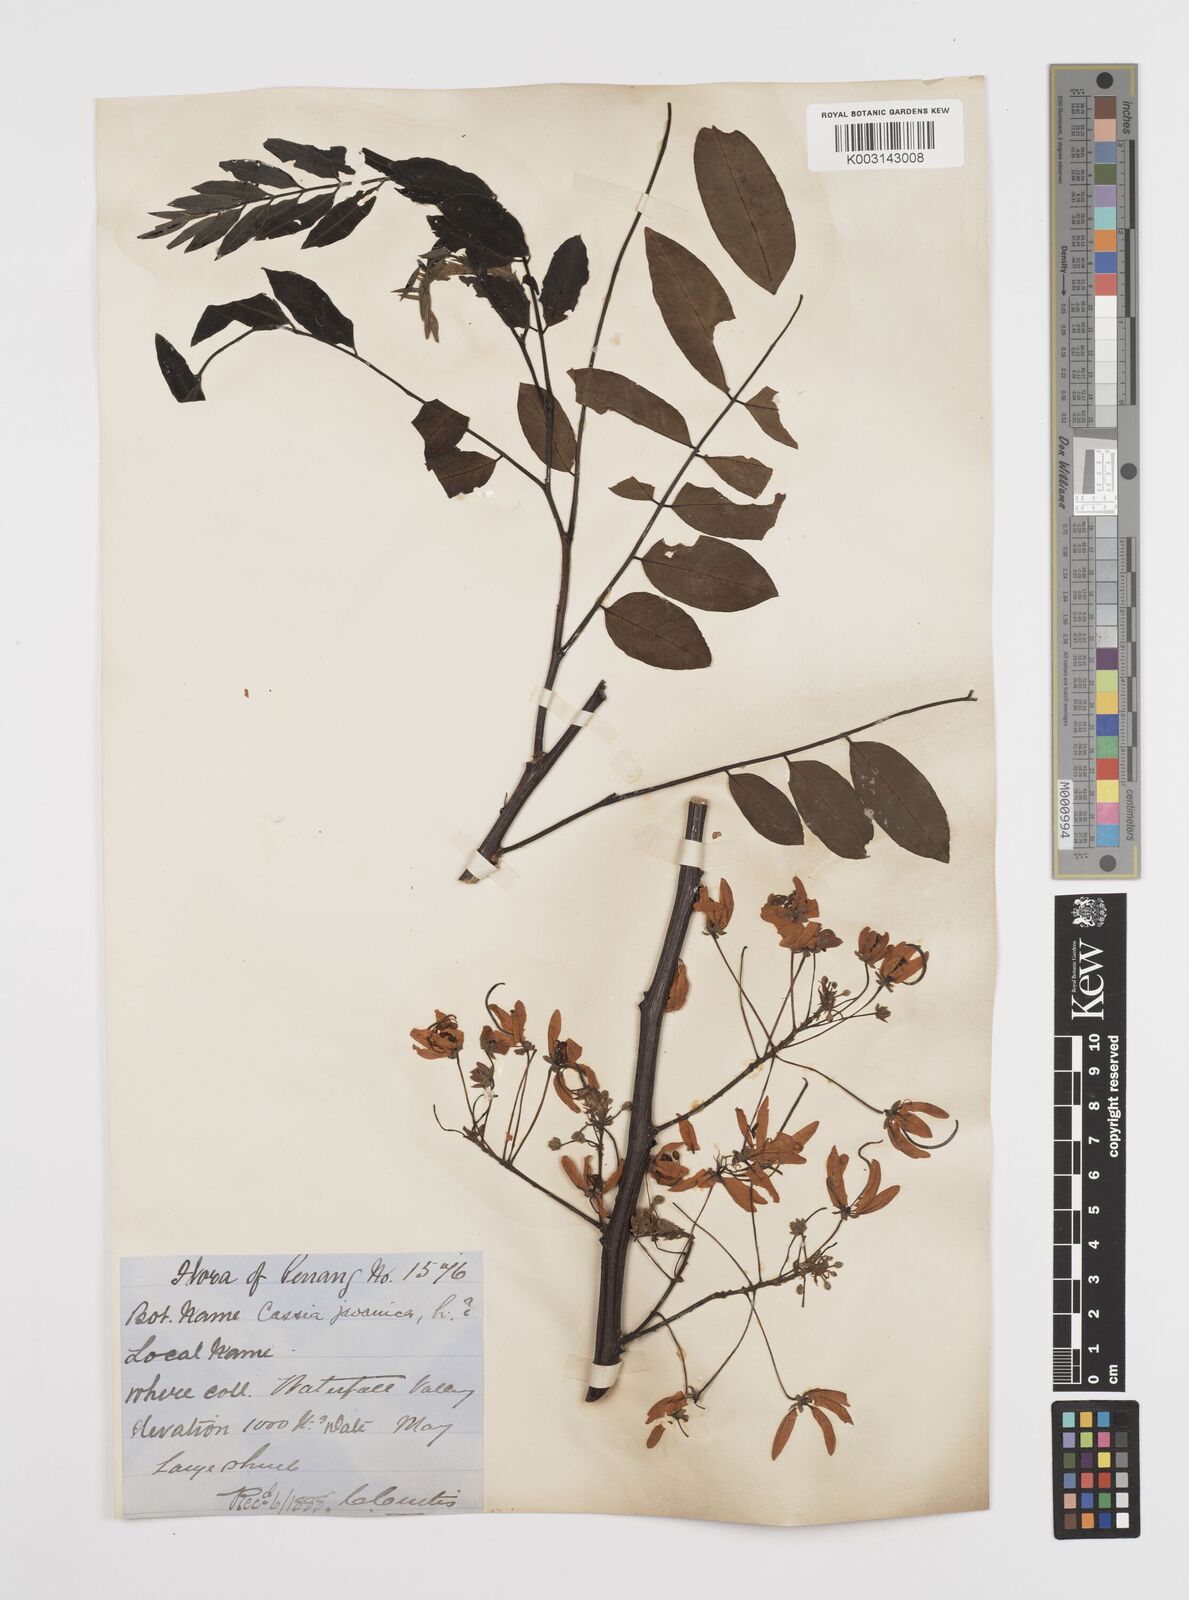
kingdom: Plantae
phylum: Tracheophyta
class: Magnoliopsida
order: Fabales
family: Fabaceae
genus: Cassia
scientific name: Cassia javanica
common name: Apple blossom
